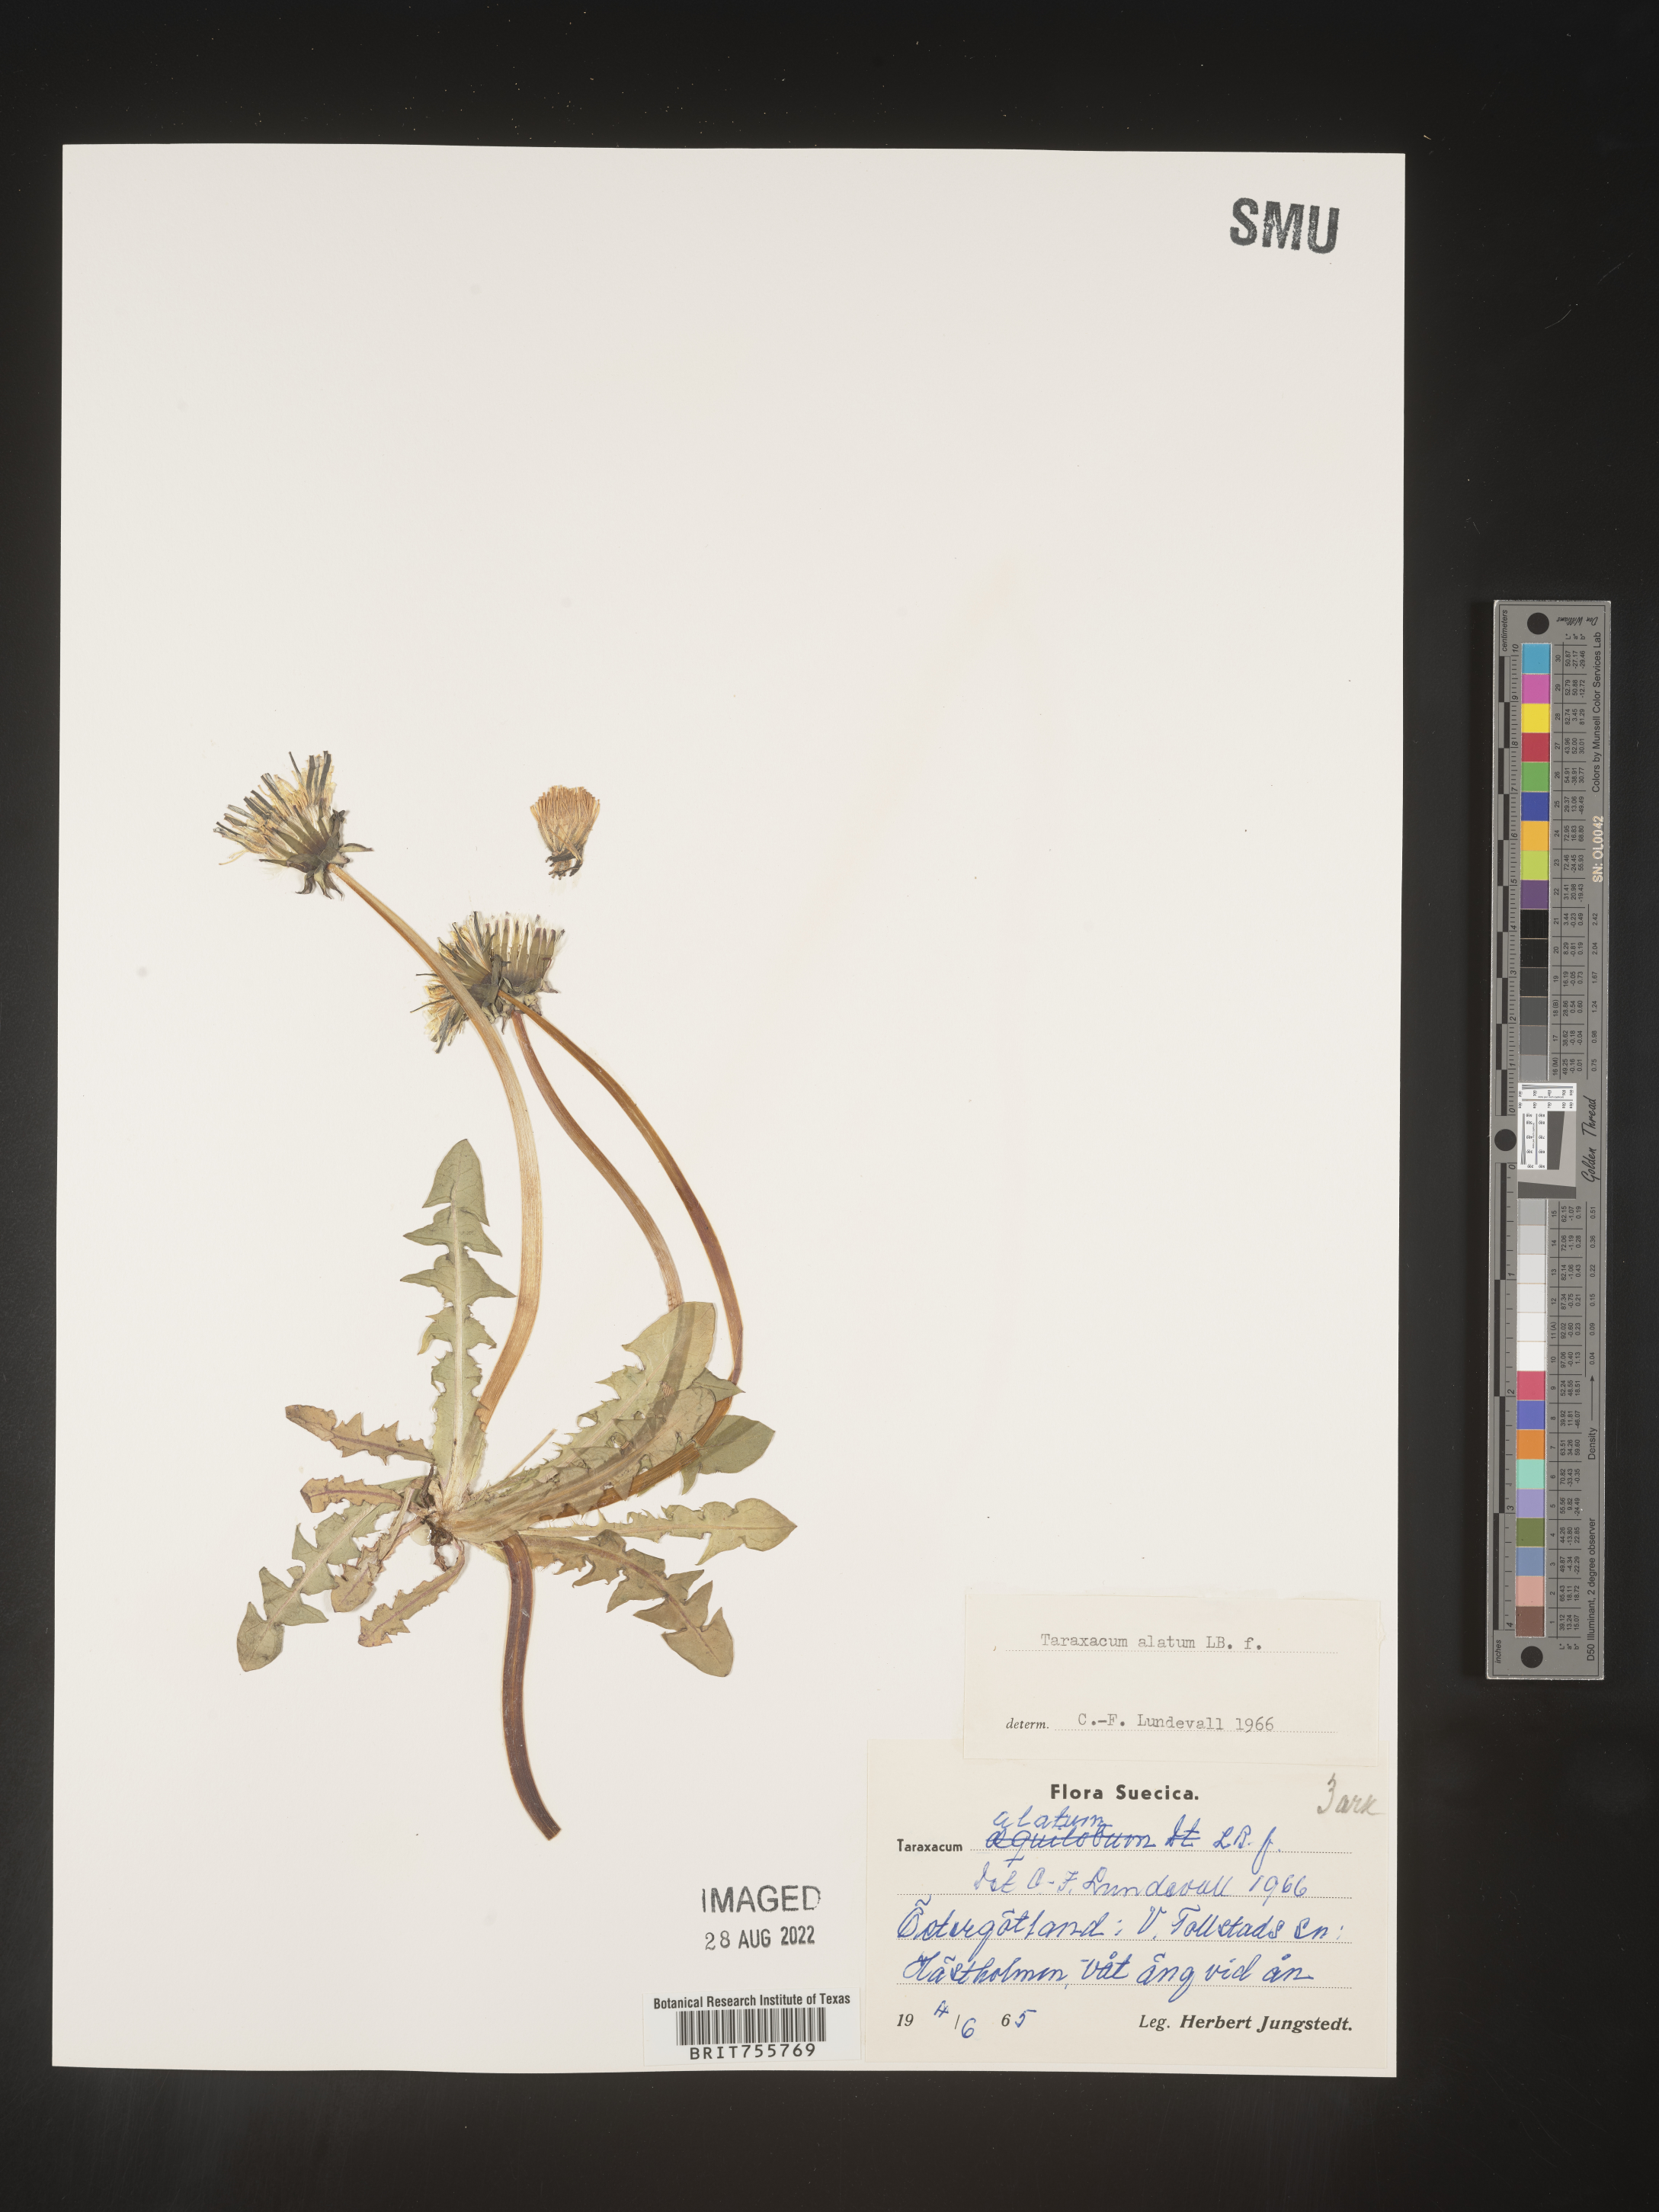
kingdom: Plantae
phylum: Tracheophyta
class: Magnoliopsida
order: Asterales
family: Asteraceae
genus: Taraxacum
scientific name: Taraxacum
